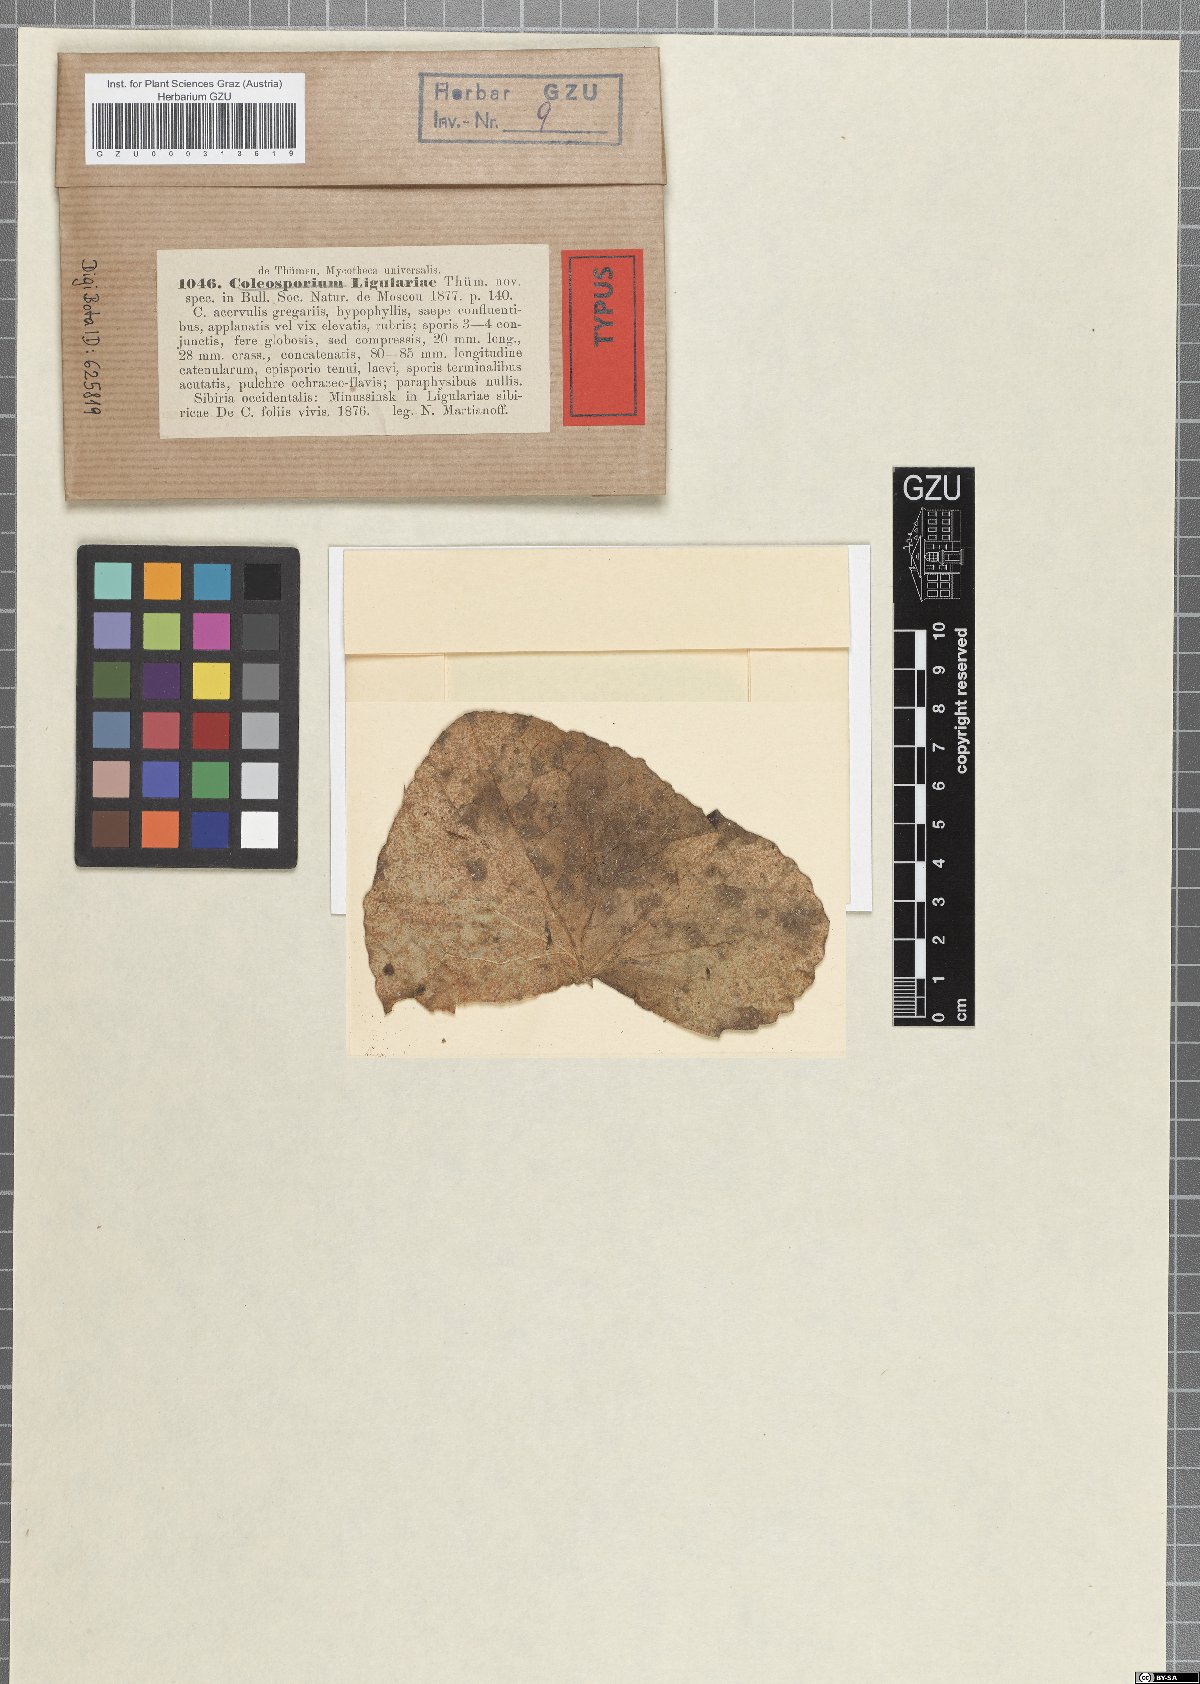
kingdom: Fungi
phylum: Basidiomycota
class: Pucciniomycetes
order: Pucciniales
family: Coleosporiaceae
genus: Coleosporium
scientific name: Coleosporium ligulariae
